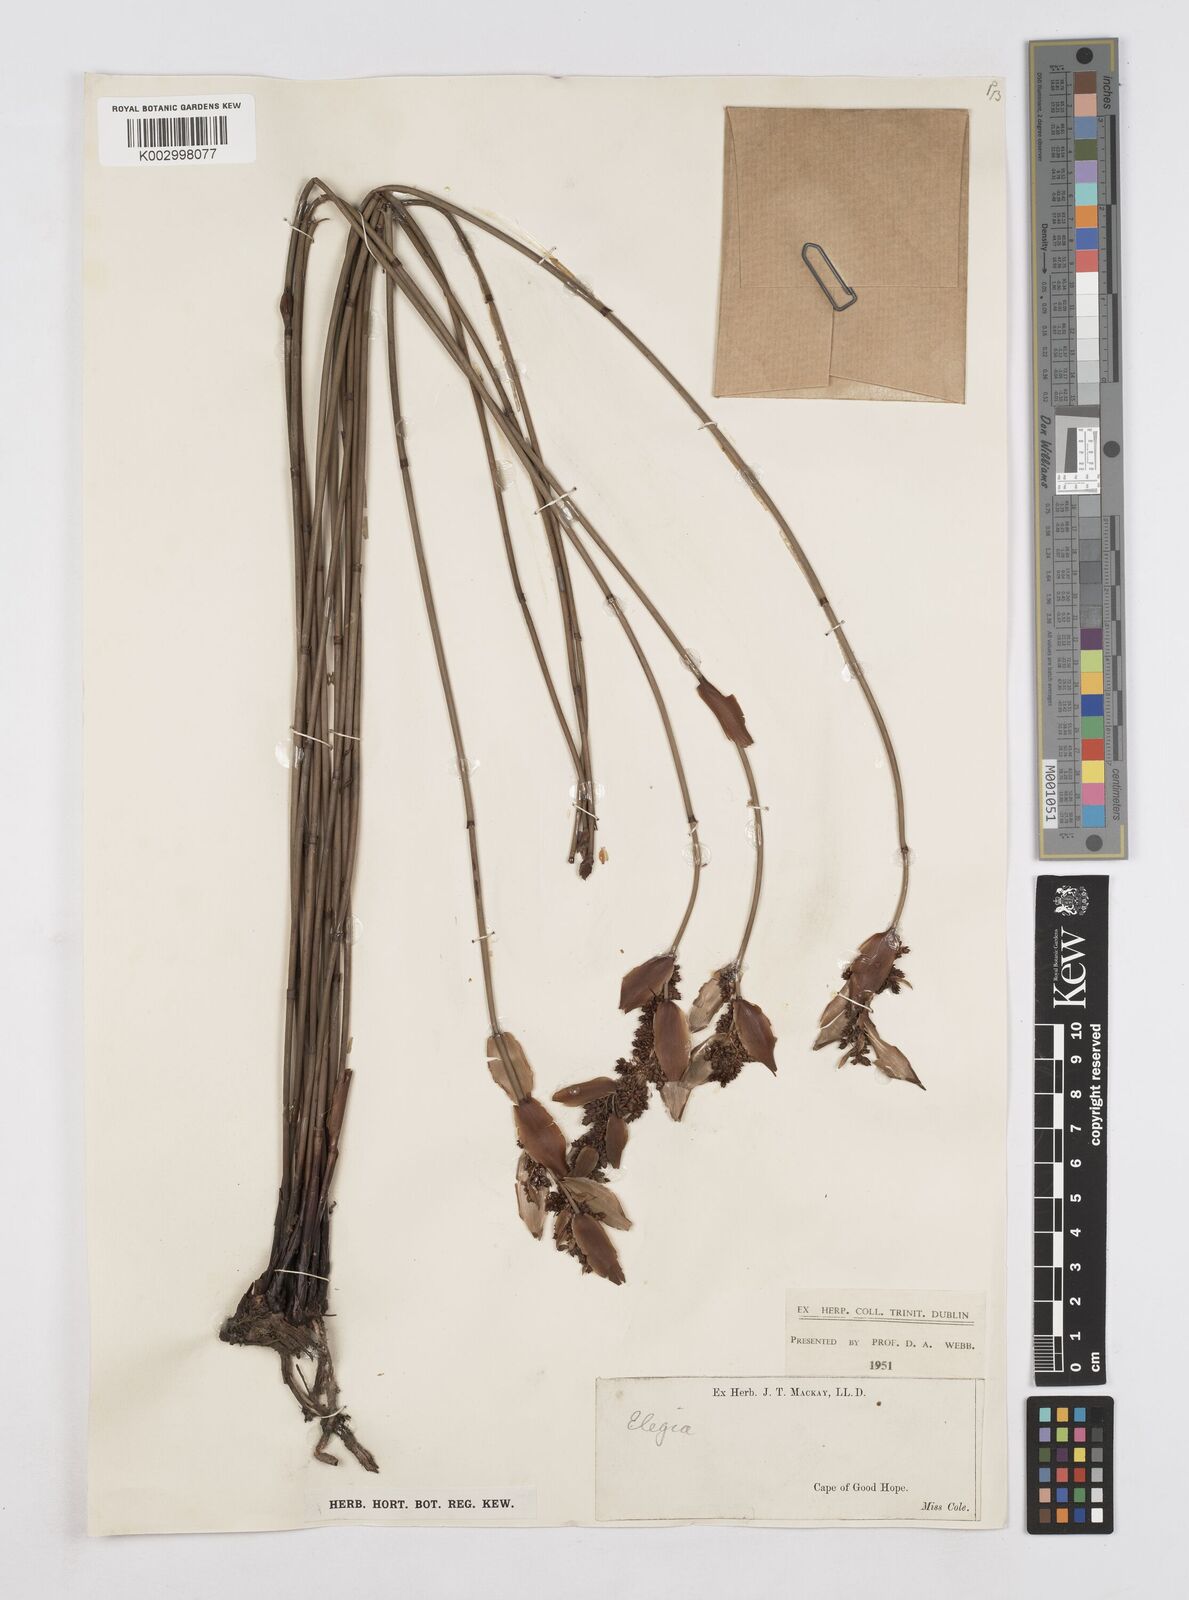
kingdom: Plantae
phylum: Tracheophyta
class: Liliopsida
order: Poales
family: Restionaceae
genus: Elegia
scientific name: Elegia
